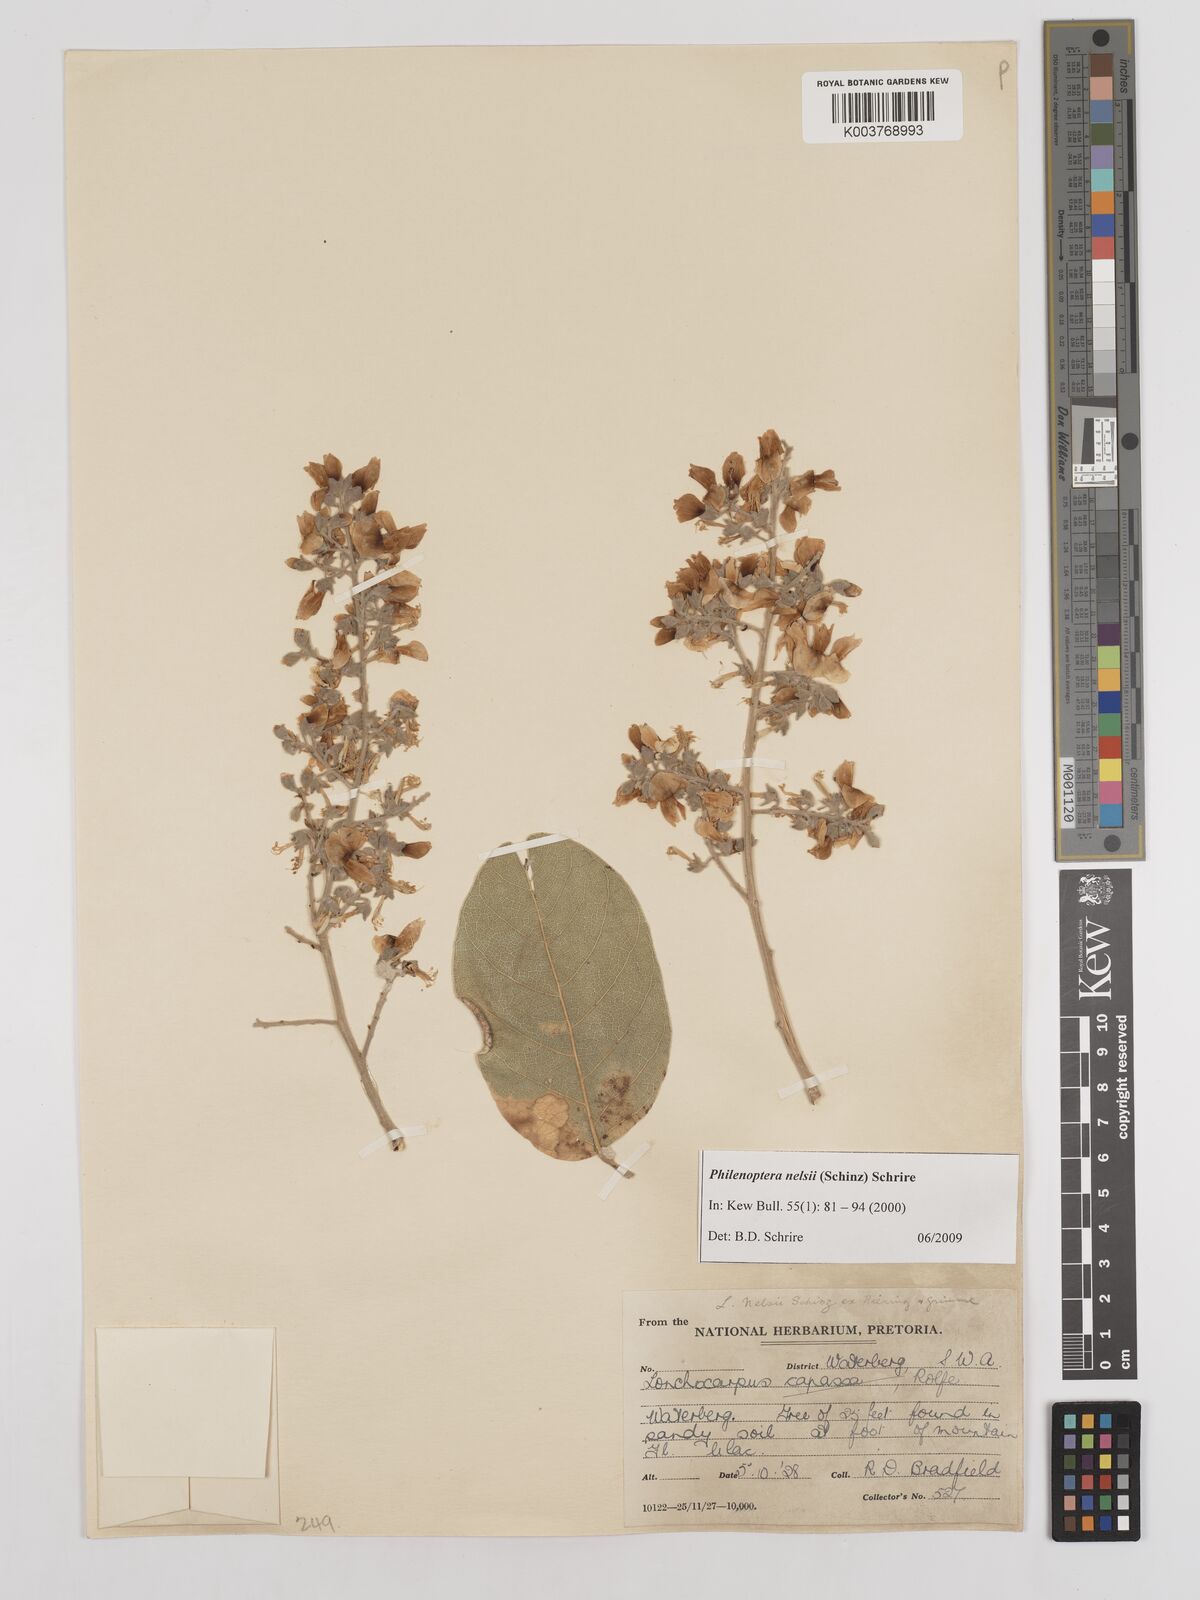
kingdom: Plantae
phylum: Tracheophyta
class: Magnoliopsida
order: Fabales
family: Fabaceae
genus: Philenoptera
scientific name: Philenoptera nelsii
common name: Kalahari apple-leaf
